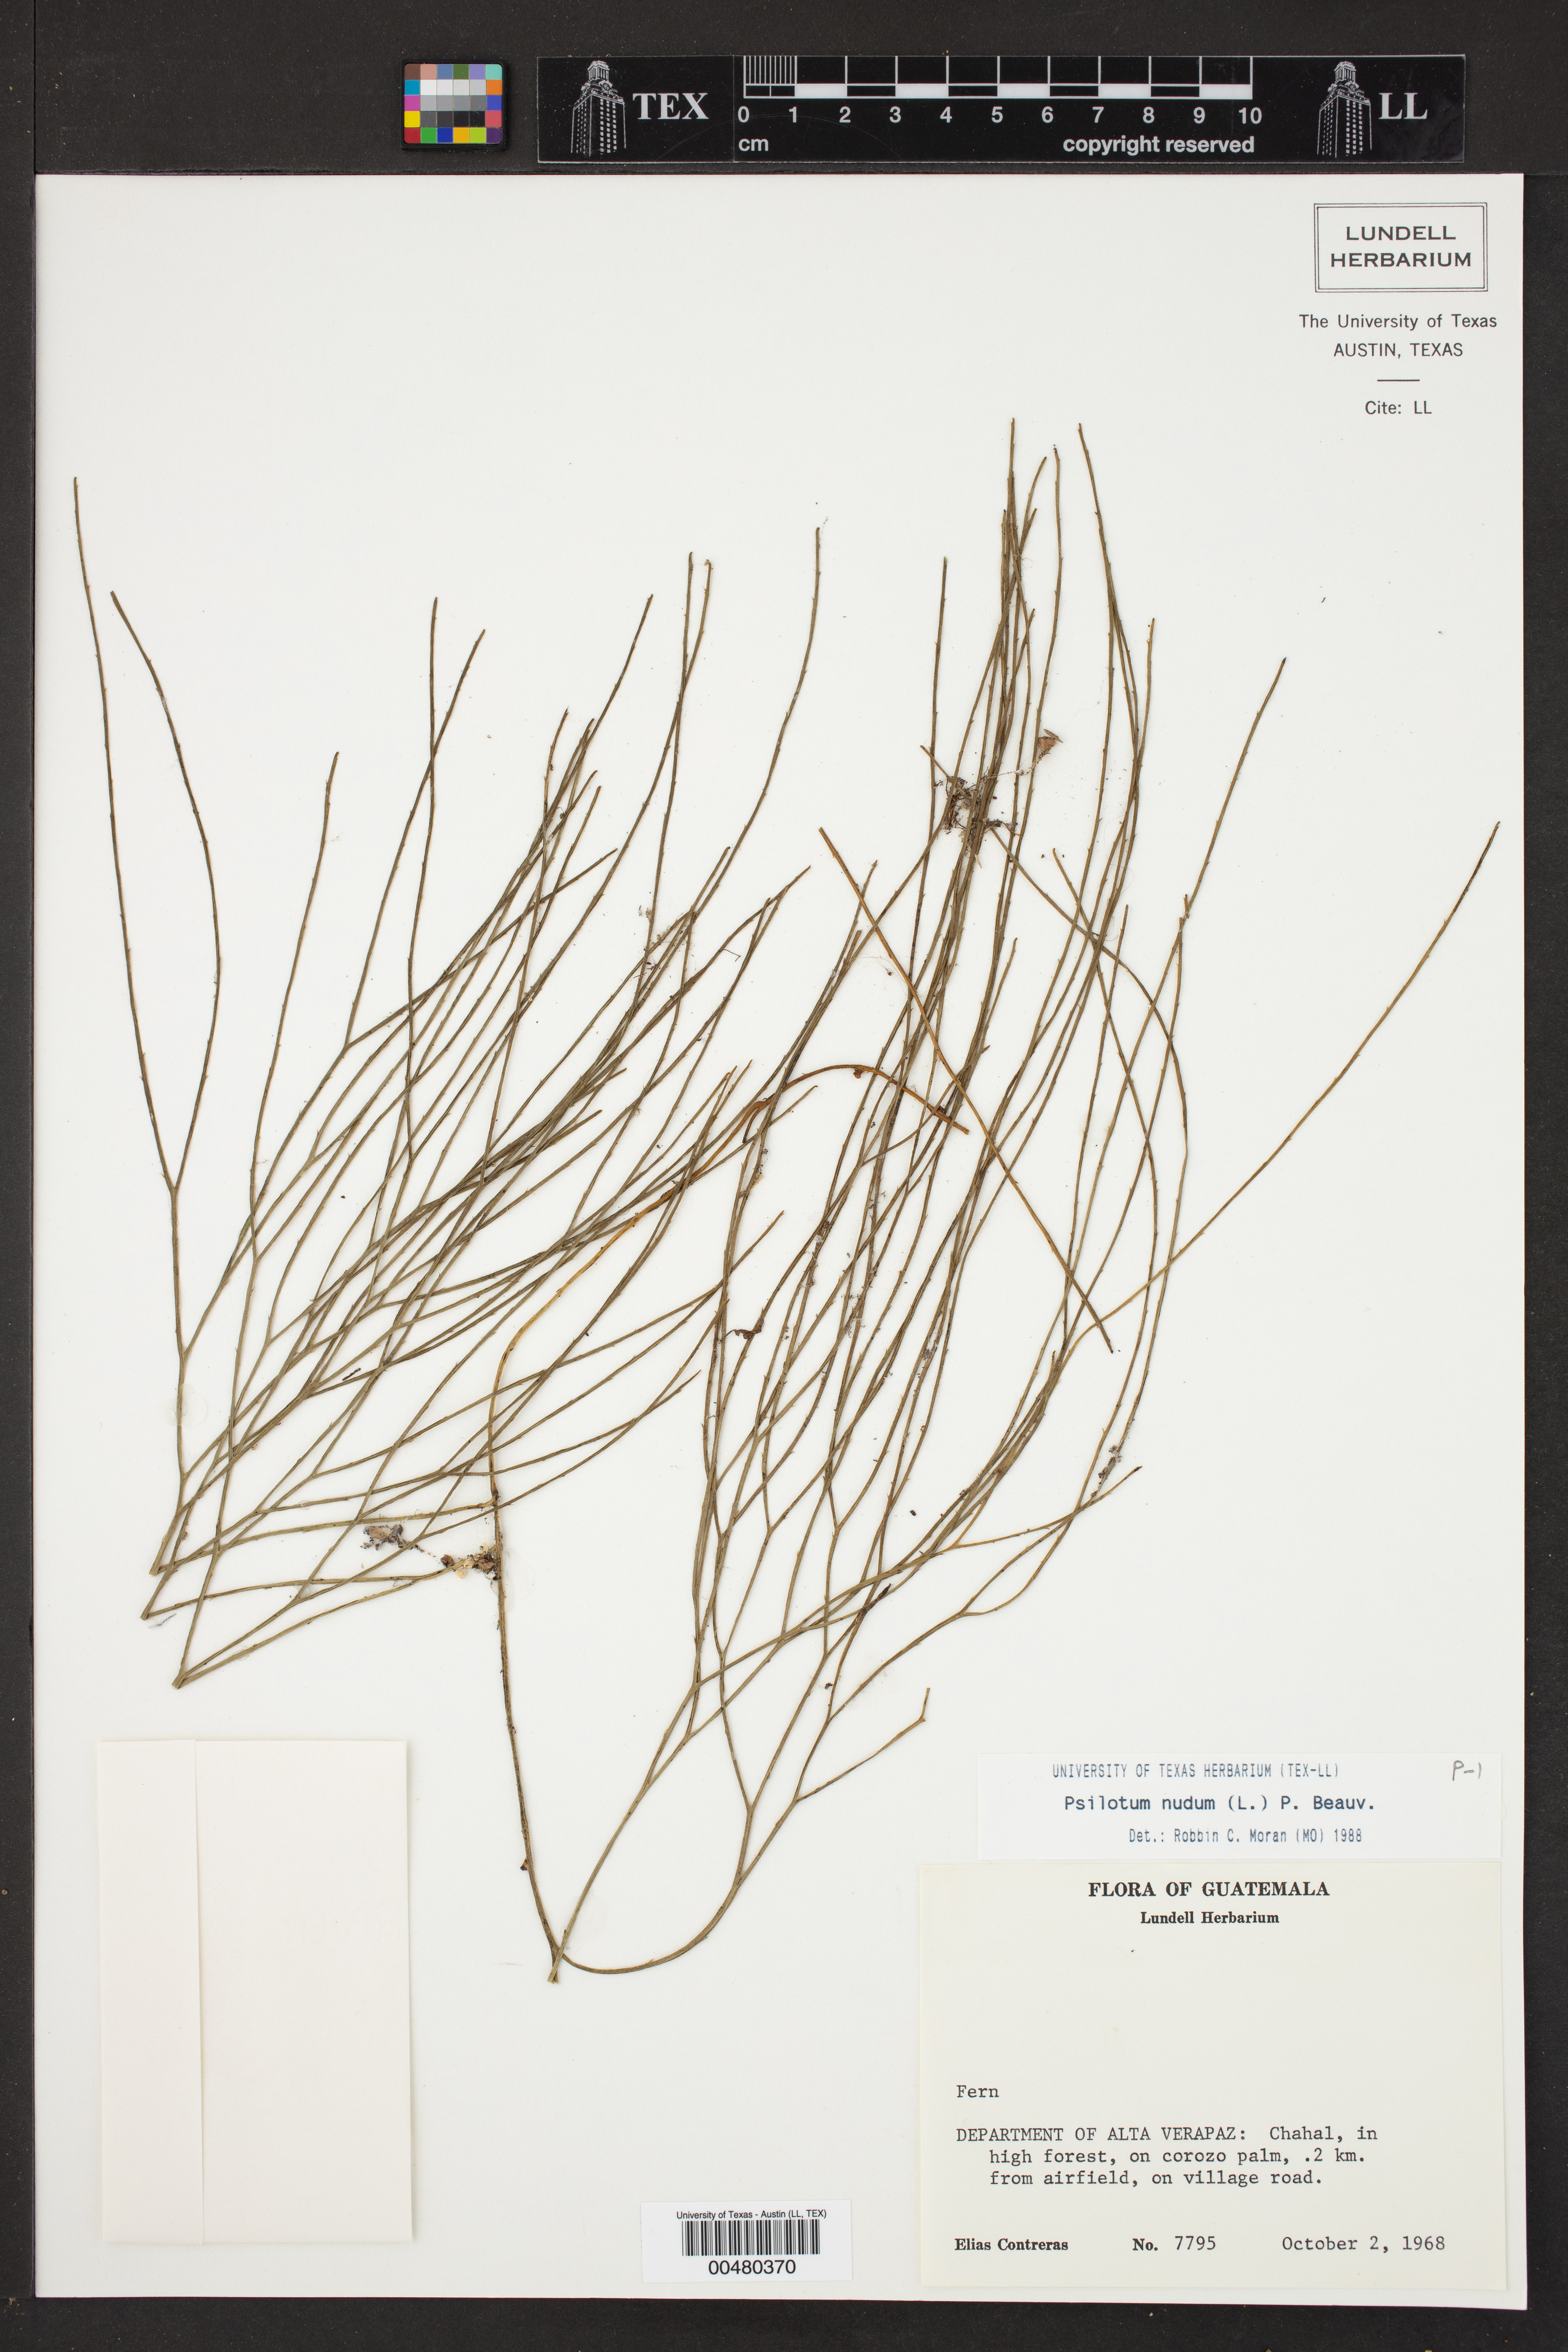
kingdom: Plantae
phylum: Tracheophyta
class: Polypodiopsida
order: Psilotales
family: Psilotaceae
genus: Psilotum
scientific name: Psilotum nudum
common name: Skeleton fork fern
